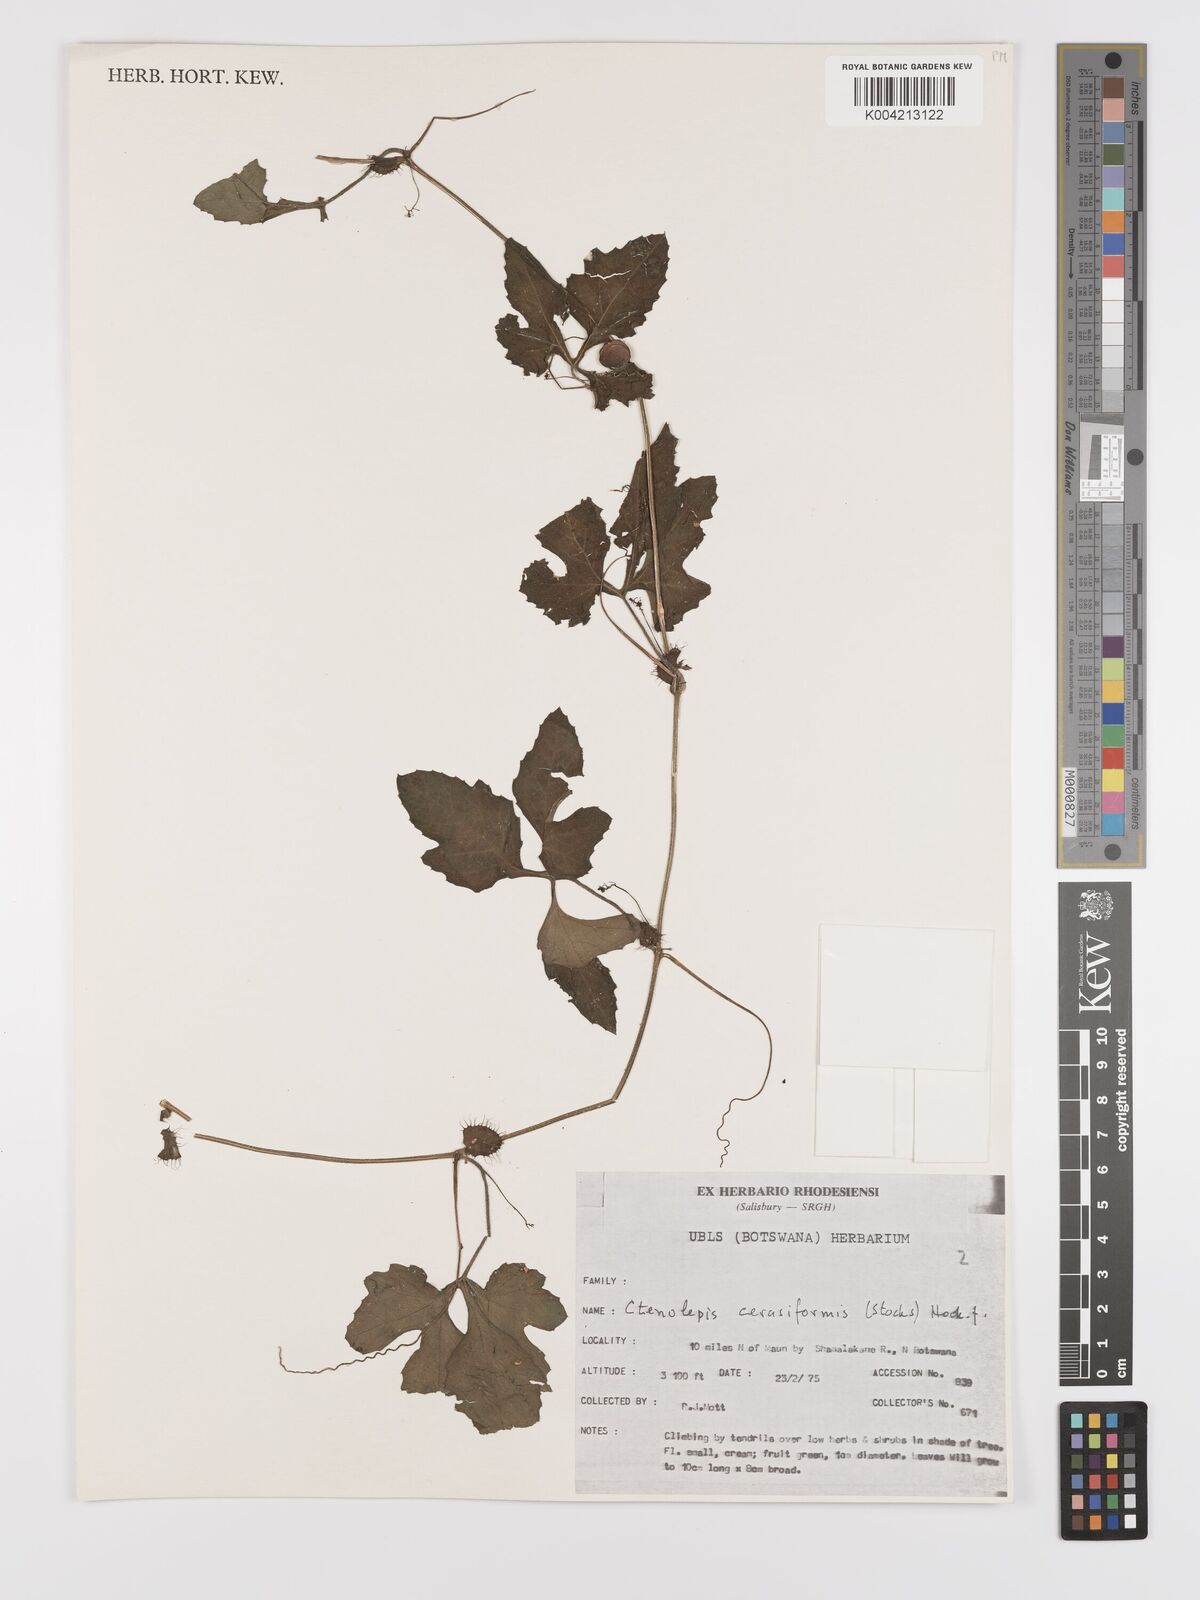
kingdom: Plantae
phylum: Tracheophyta
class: Magnoliopsida
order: Cucurbitales
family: Cucurbitaceae
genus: Blastania
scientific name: Blastania cerasiformis
